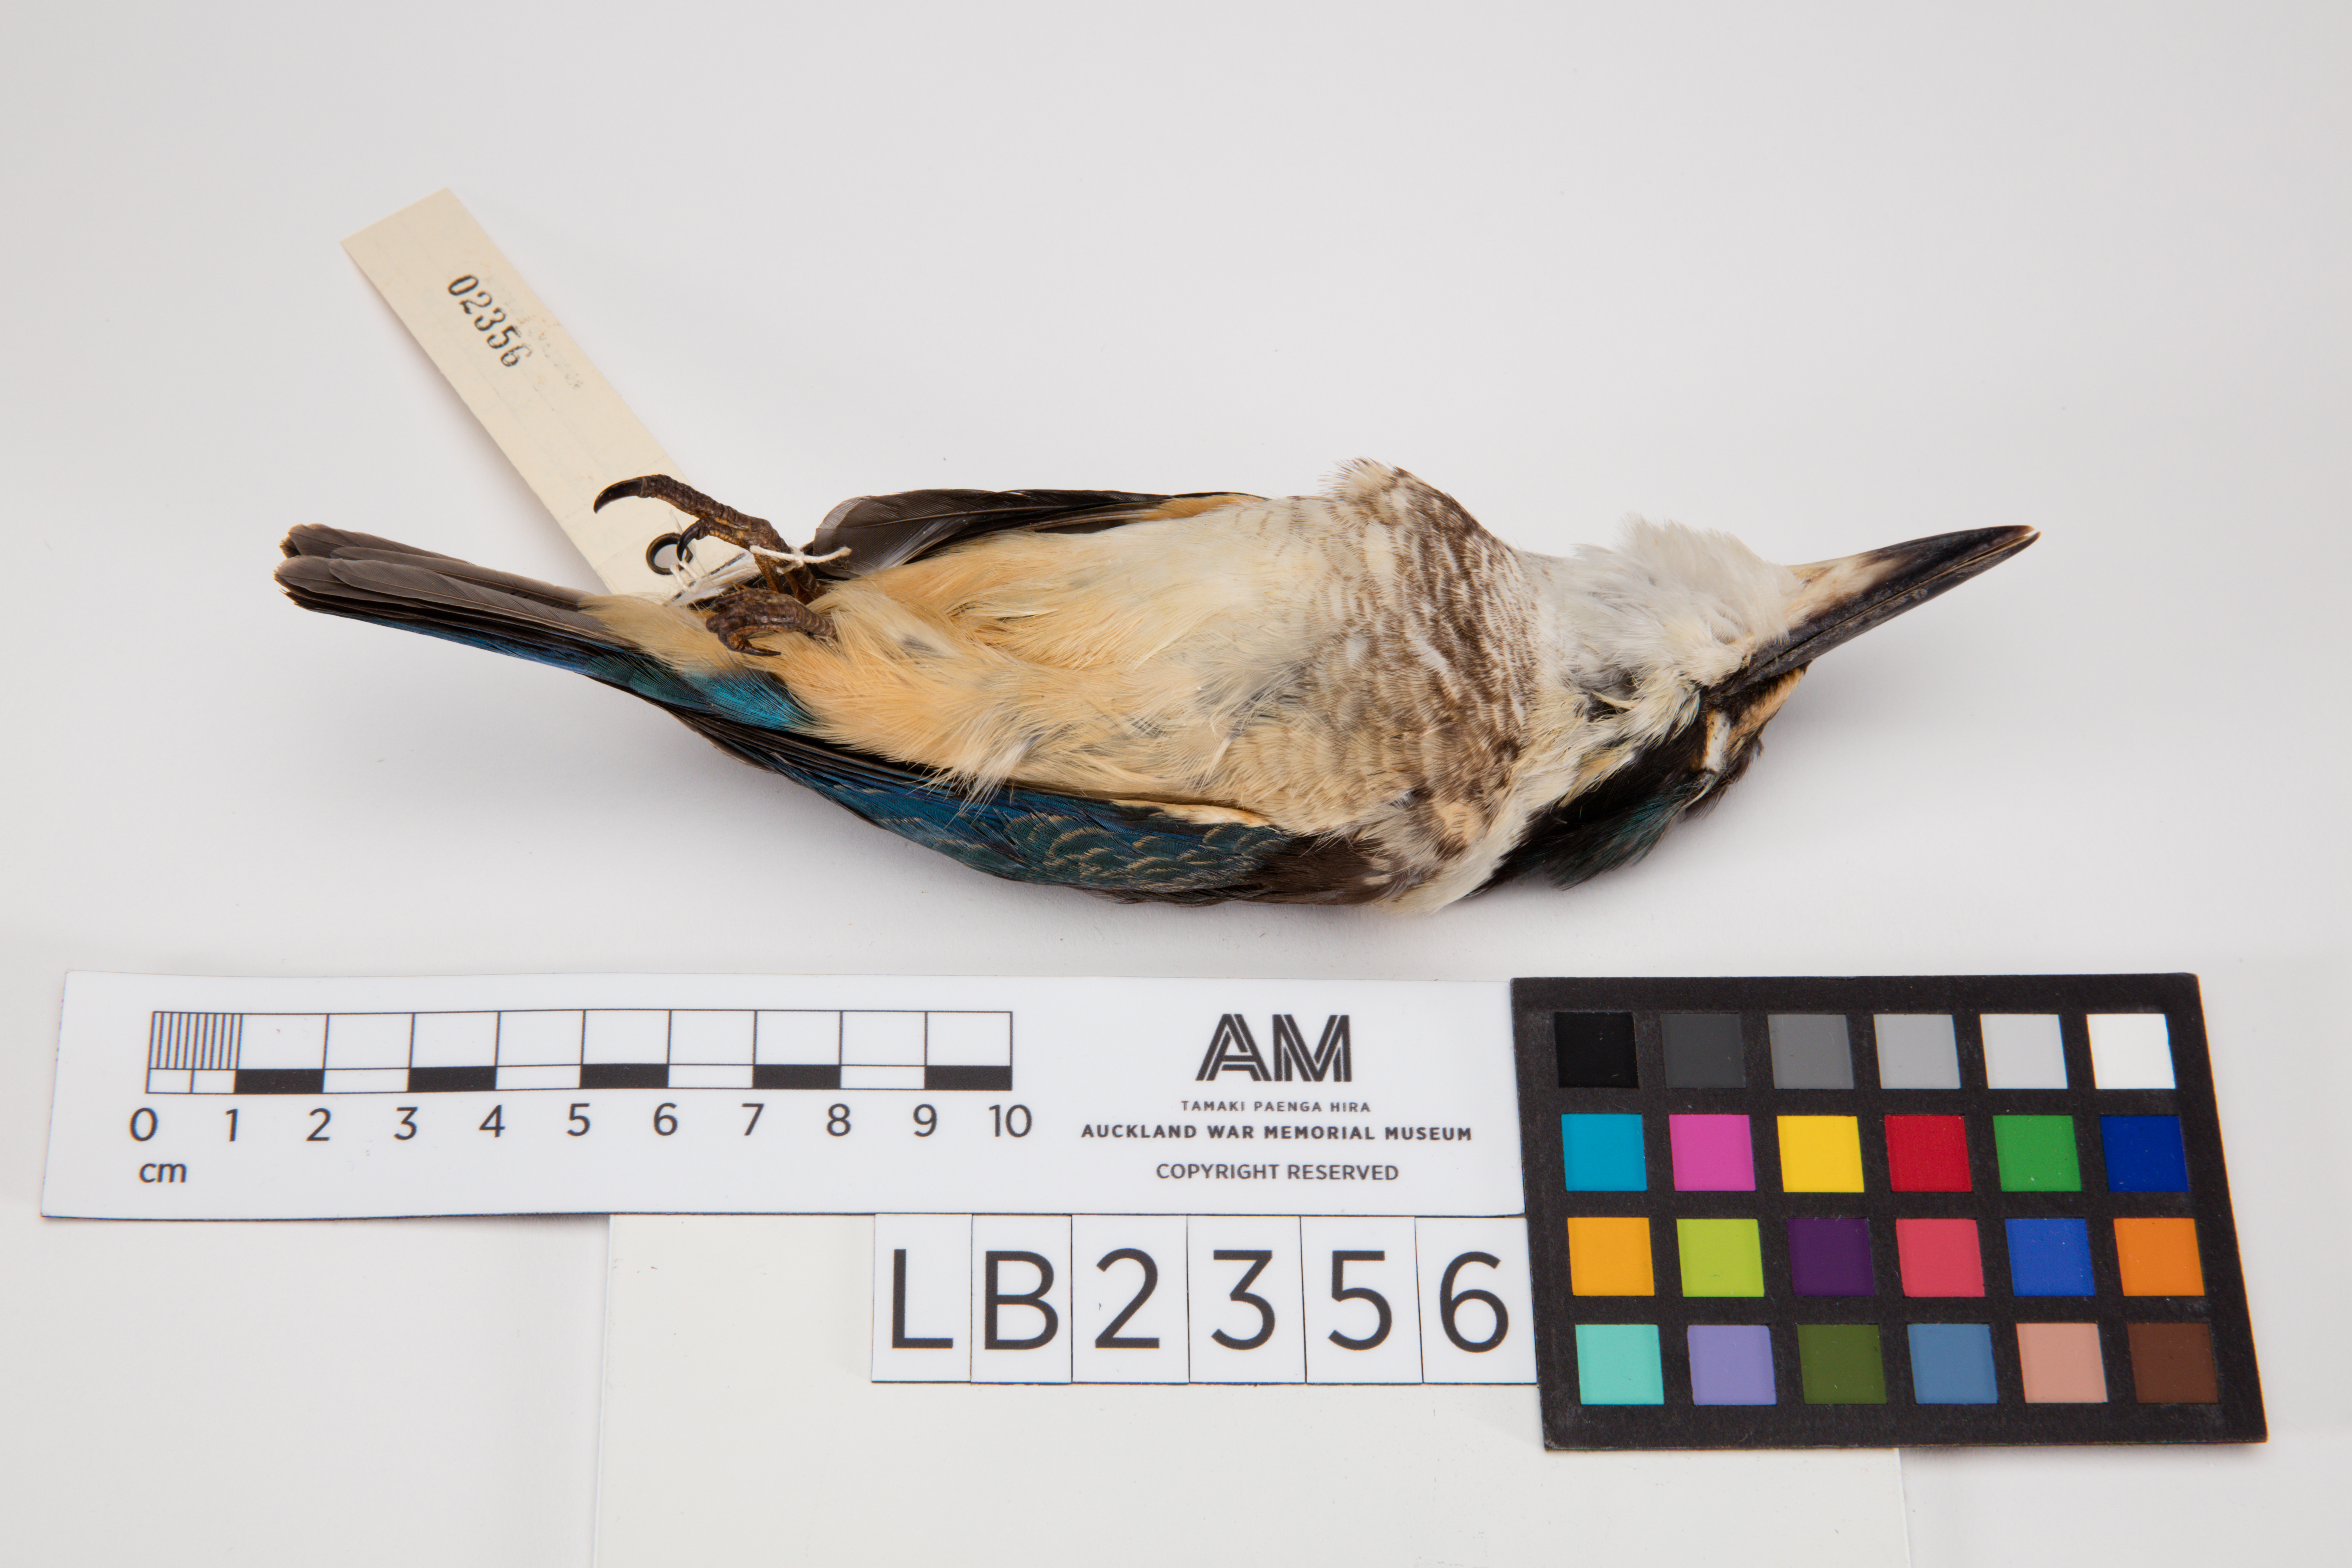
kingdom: Animalia
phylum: Chordata
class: Aves
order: Coraciiformes
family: Alcedinidae
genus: Todiramphus
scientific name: Todiramphus sanctus
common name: Sacred kingfisher
